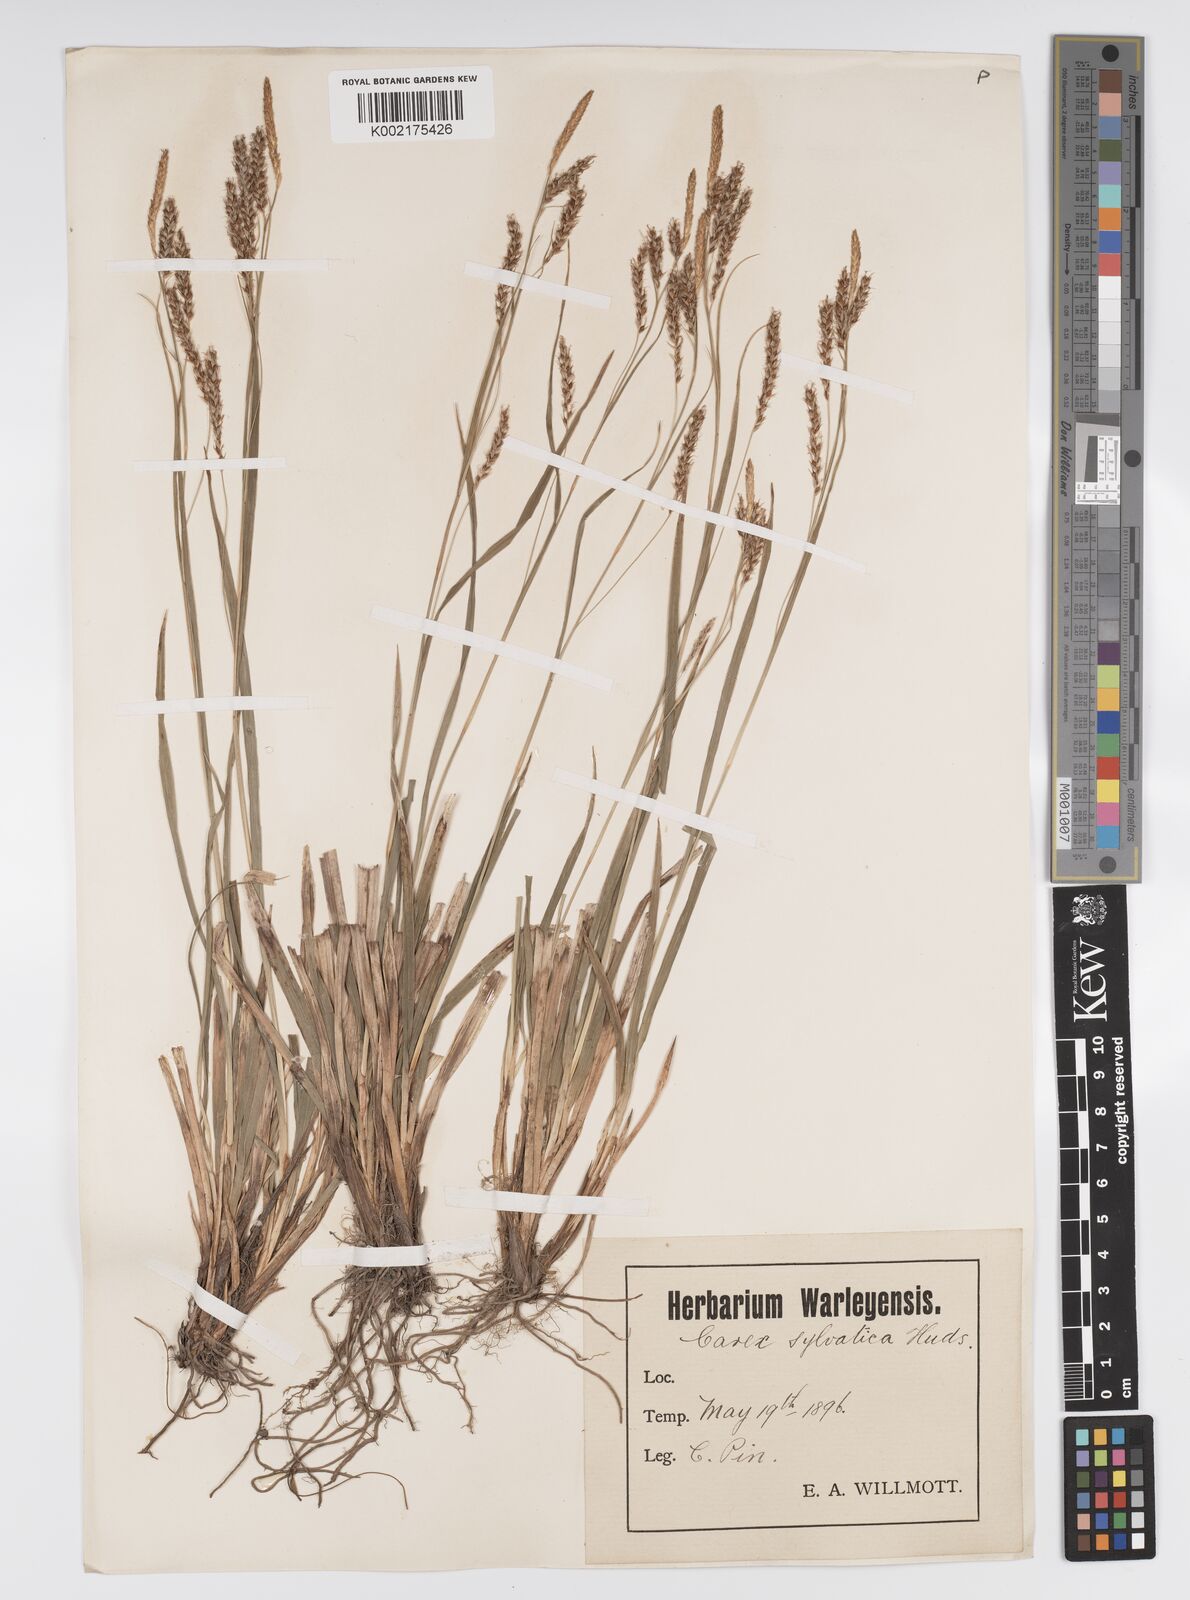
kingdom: Plantae
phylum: Tracheophyta
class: Liliopsida
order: Poales
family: Cyperaceae
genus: Carex
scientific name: Carex sylvatica
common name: Wood-sedge
